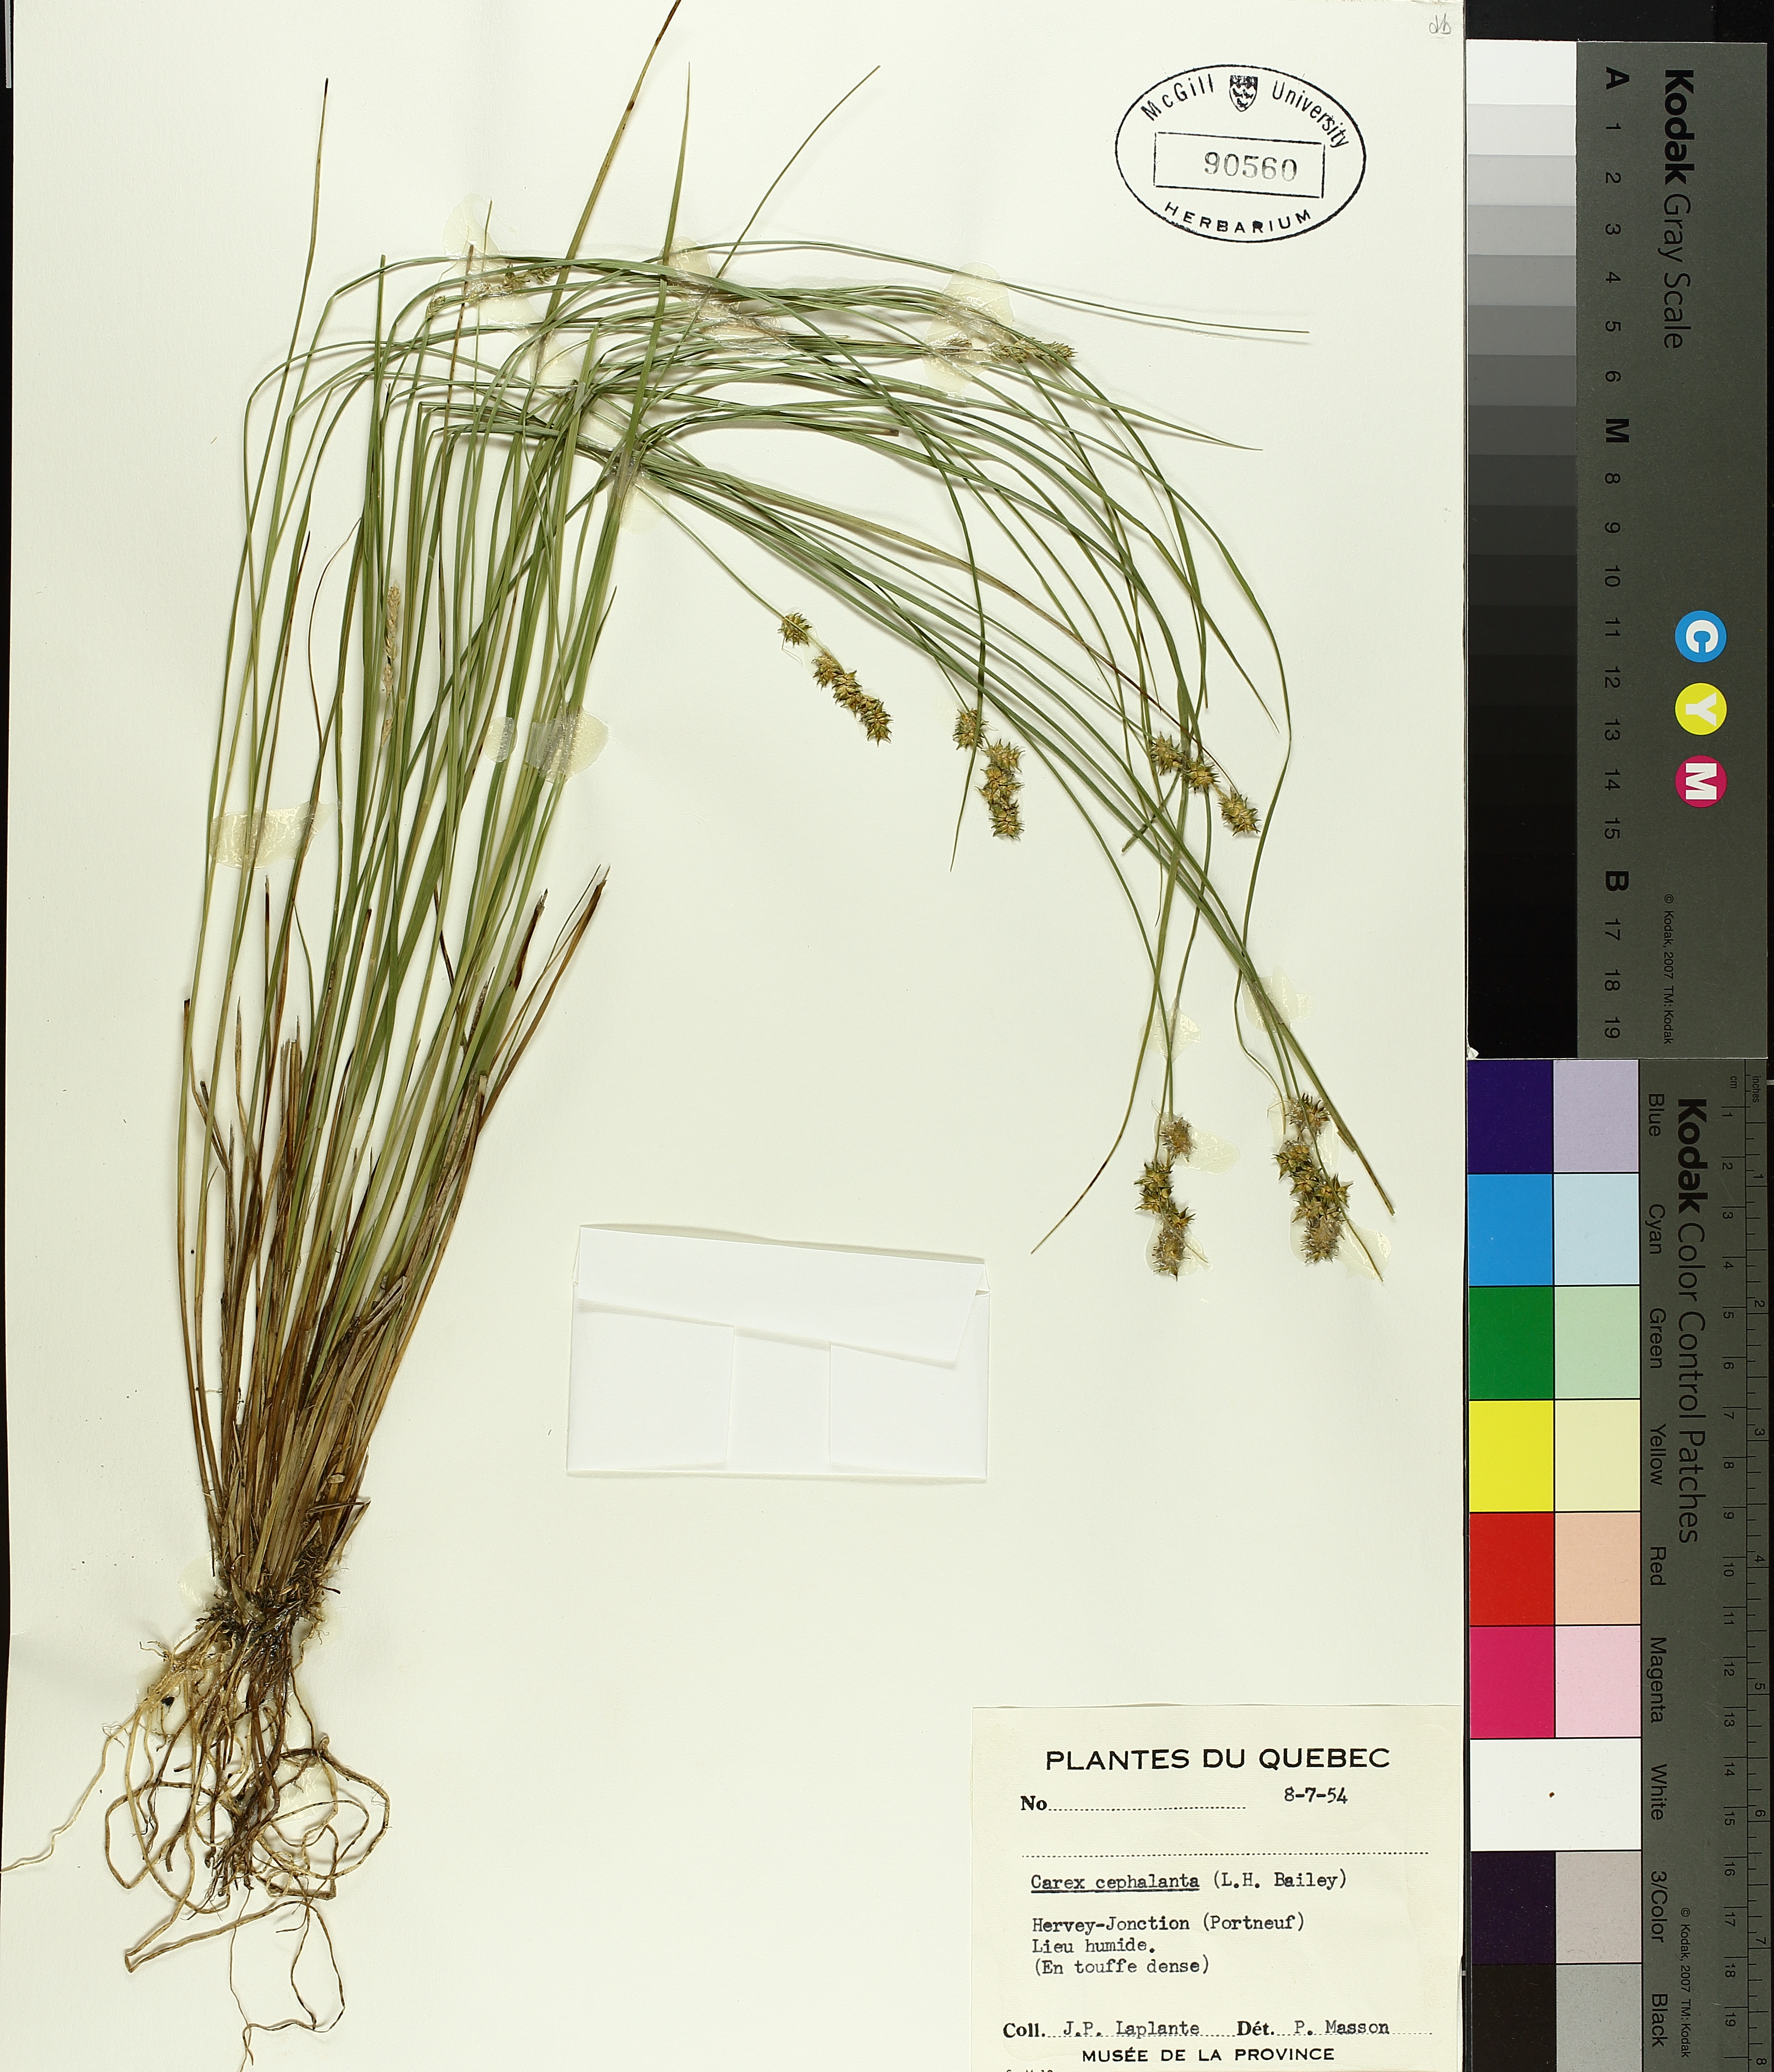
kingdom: Plantae
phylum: Tracheophyta
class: Liliopsida
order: Poales
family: Cyperaceae
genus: Carex
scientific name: Carex echinata
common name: Star sedge
